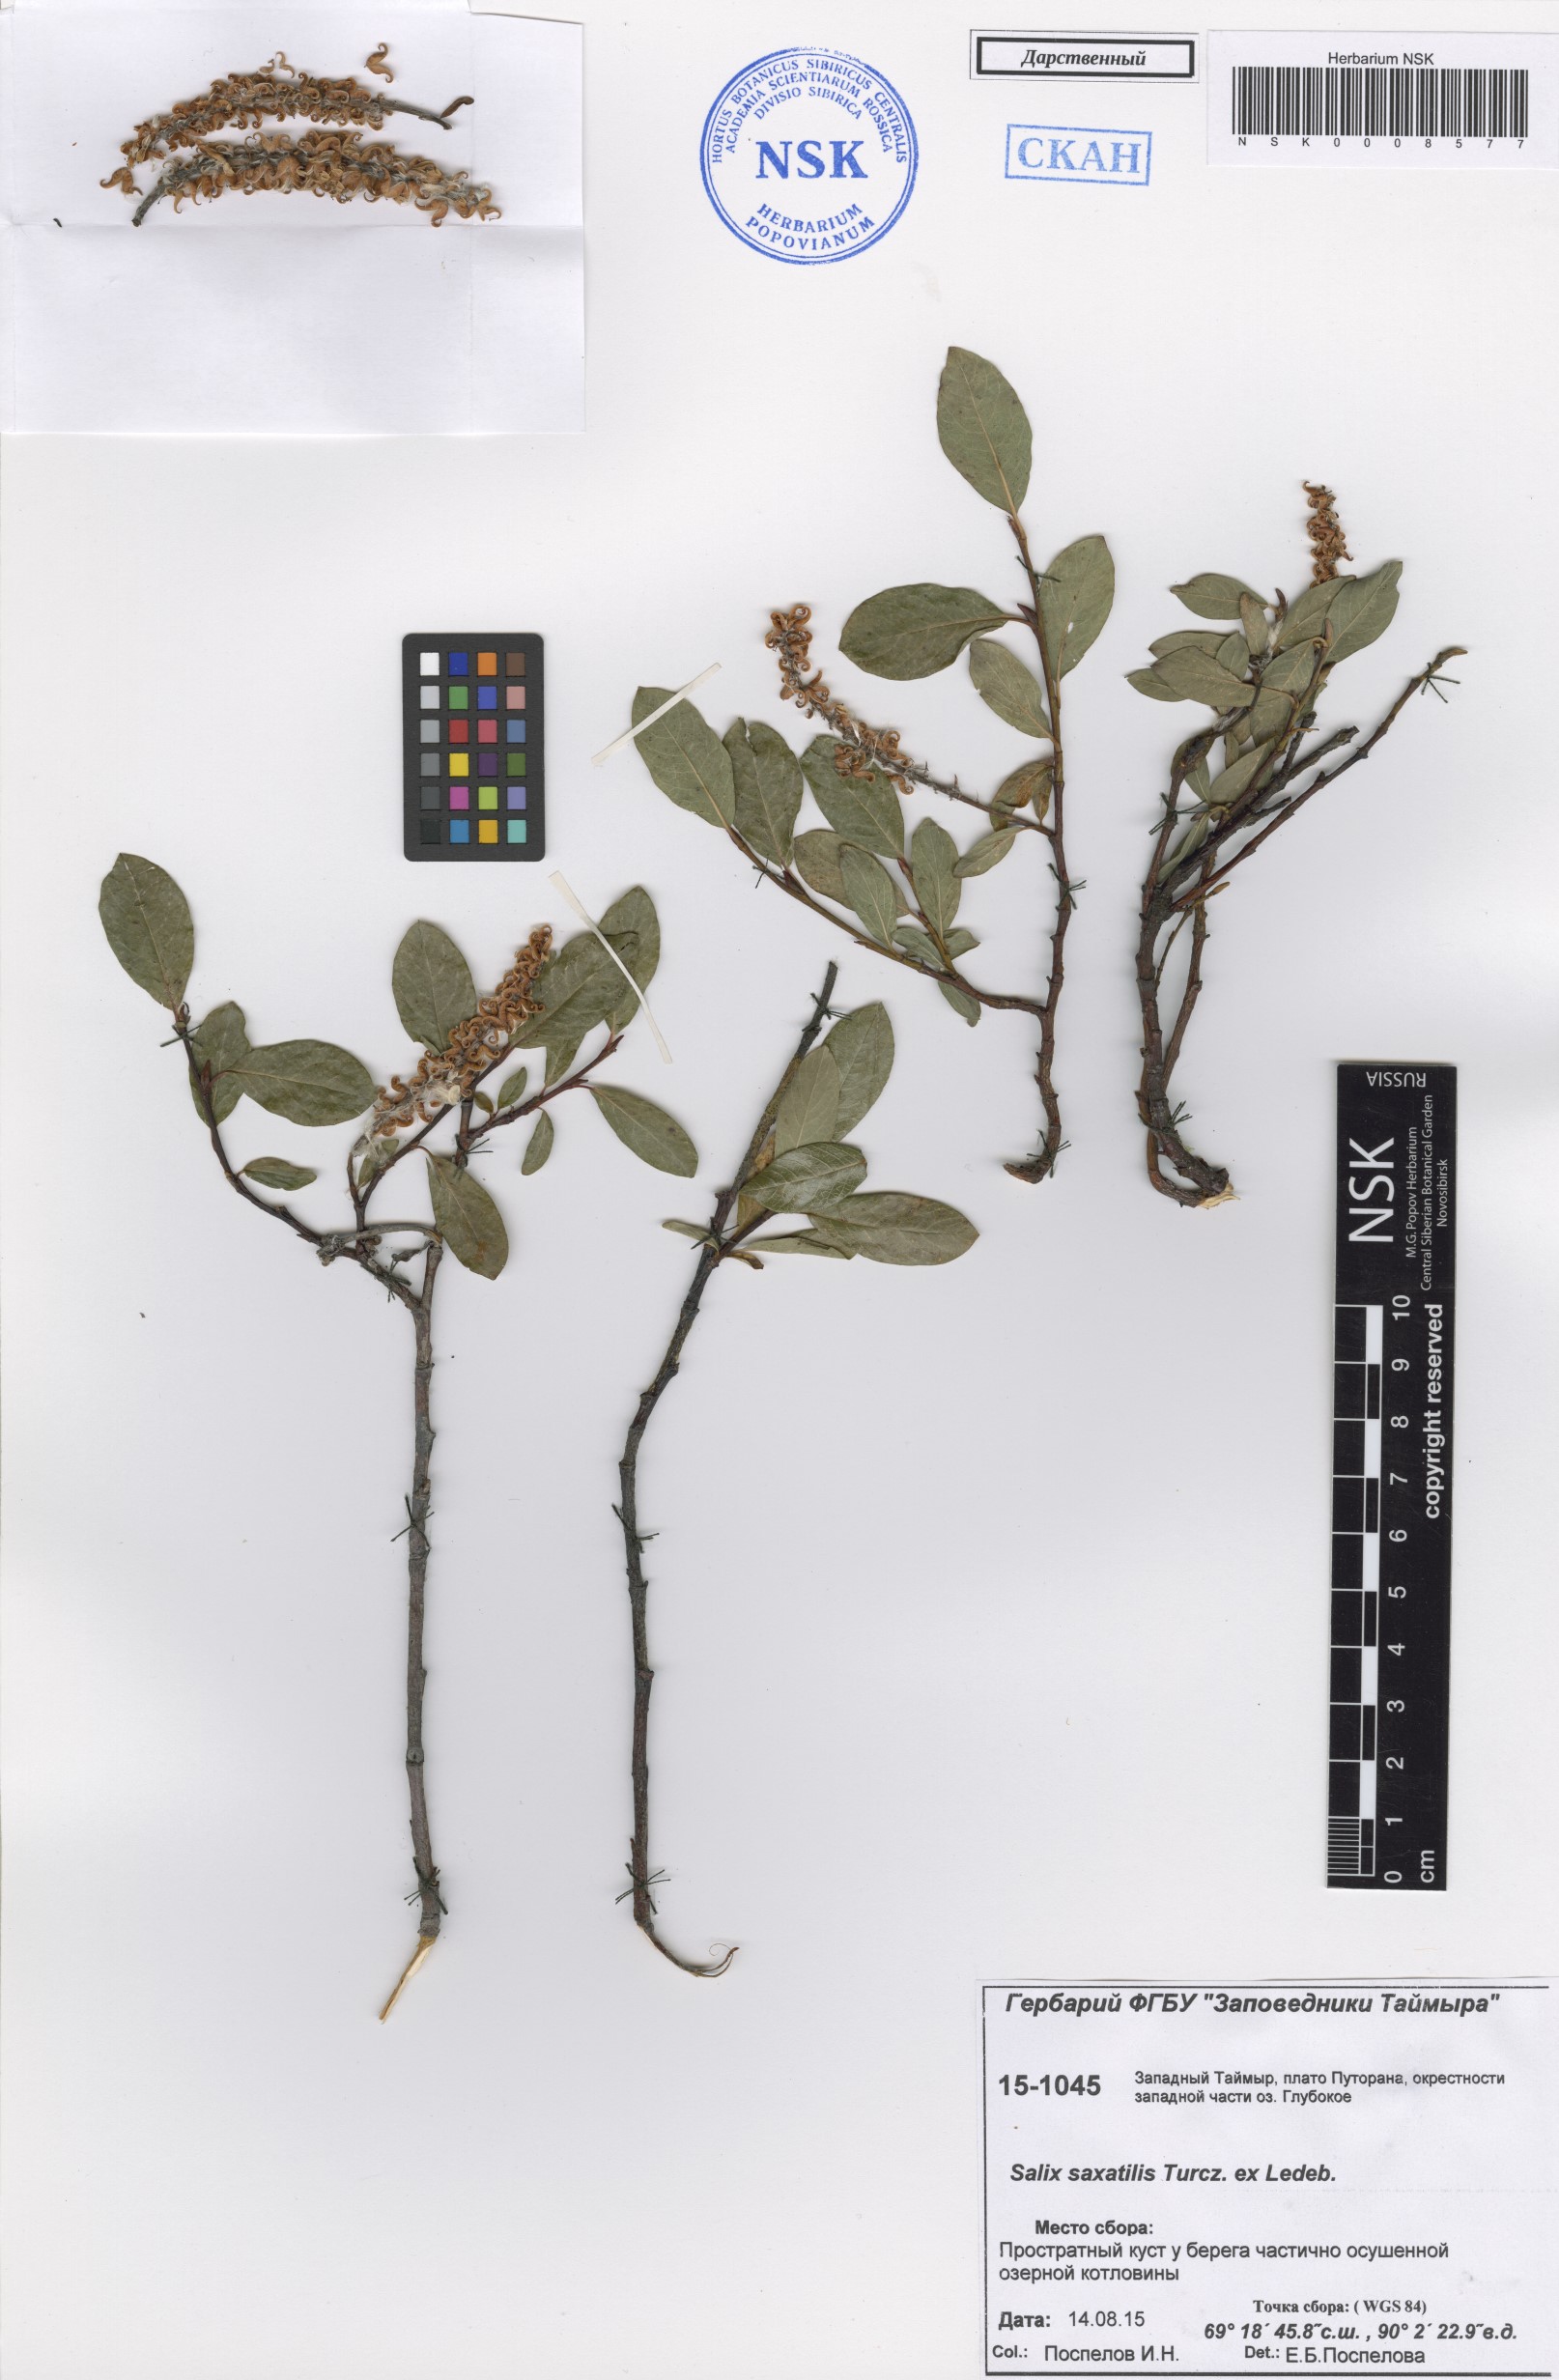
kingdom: Plantae
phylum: Tracheophyta
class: Magnoliopsida
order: Malpighiales
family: Salicaceae
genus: Salix
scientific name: Salix saxatilis
